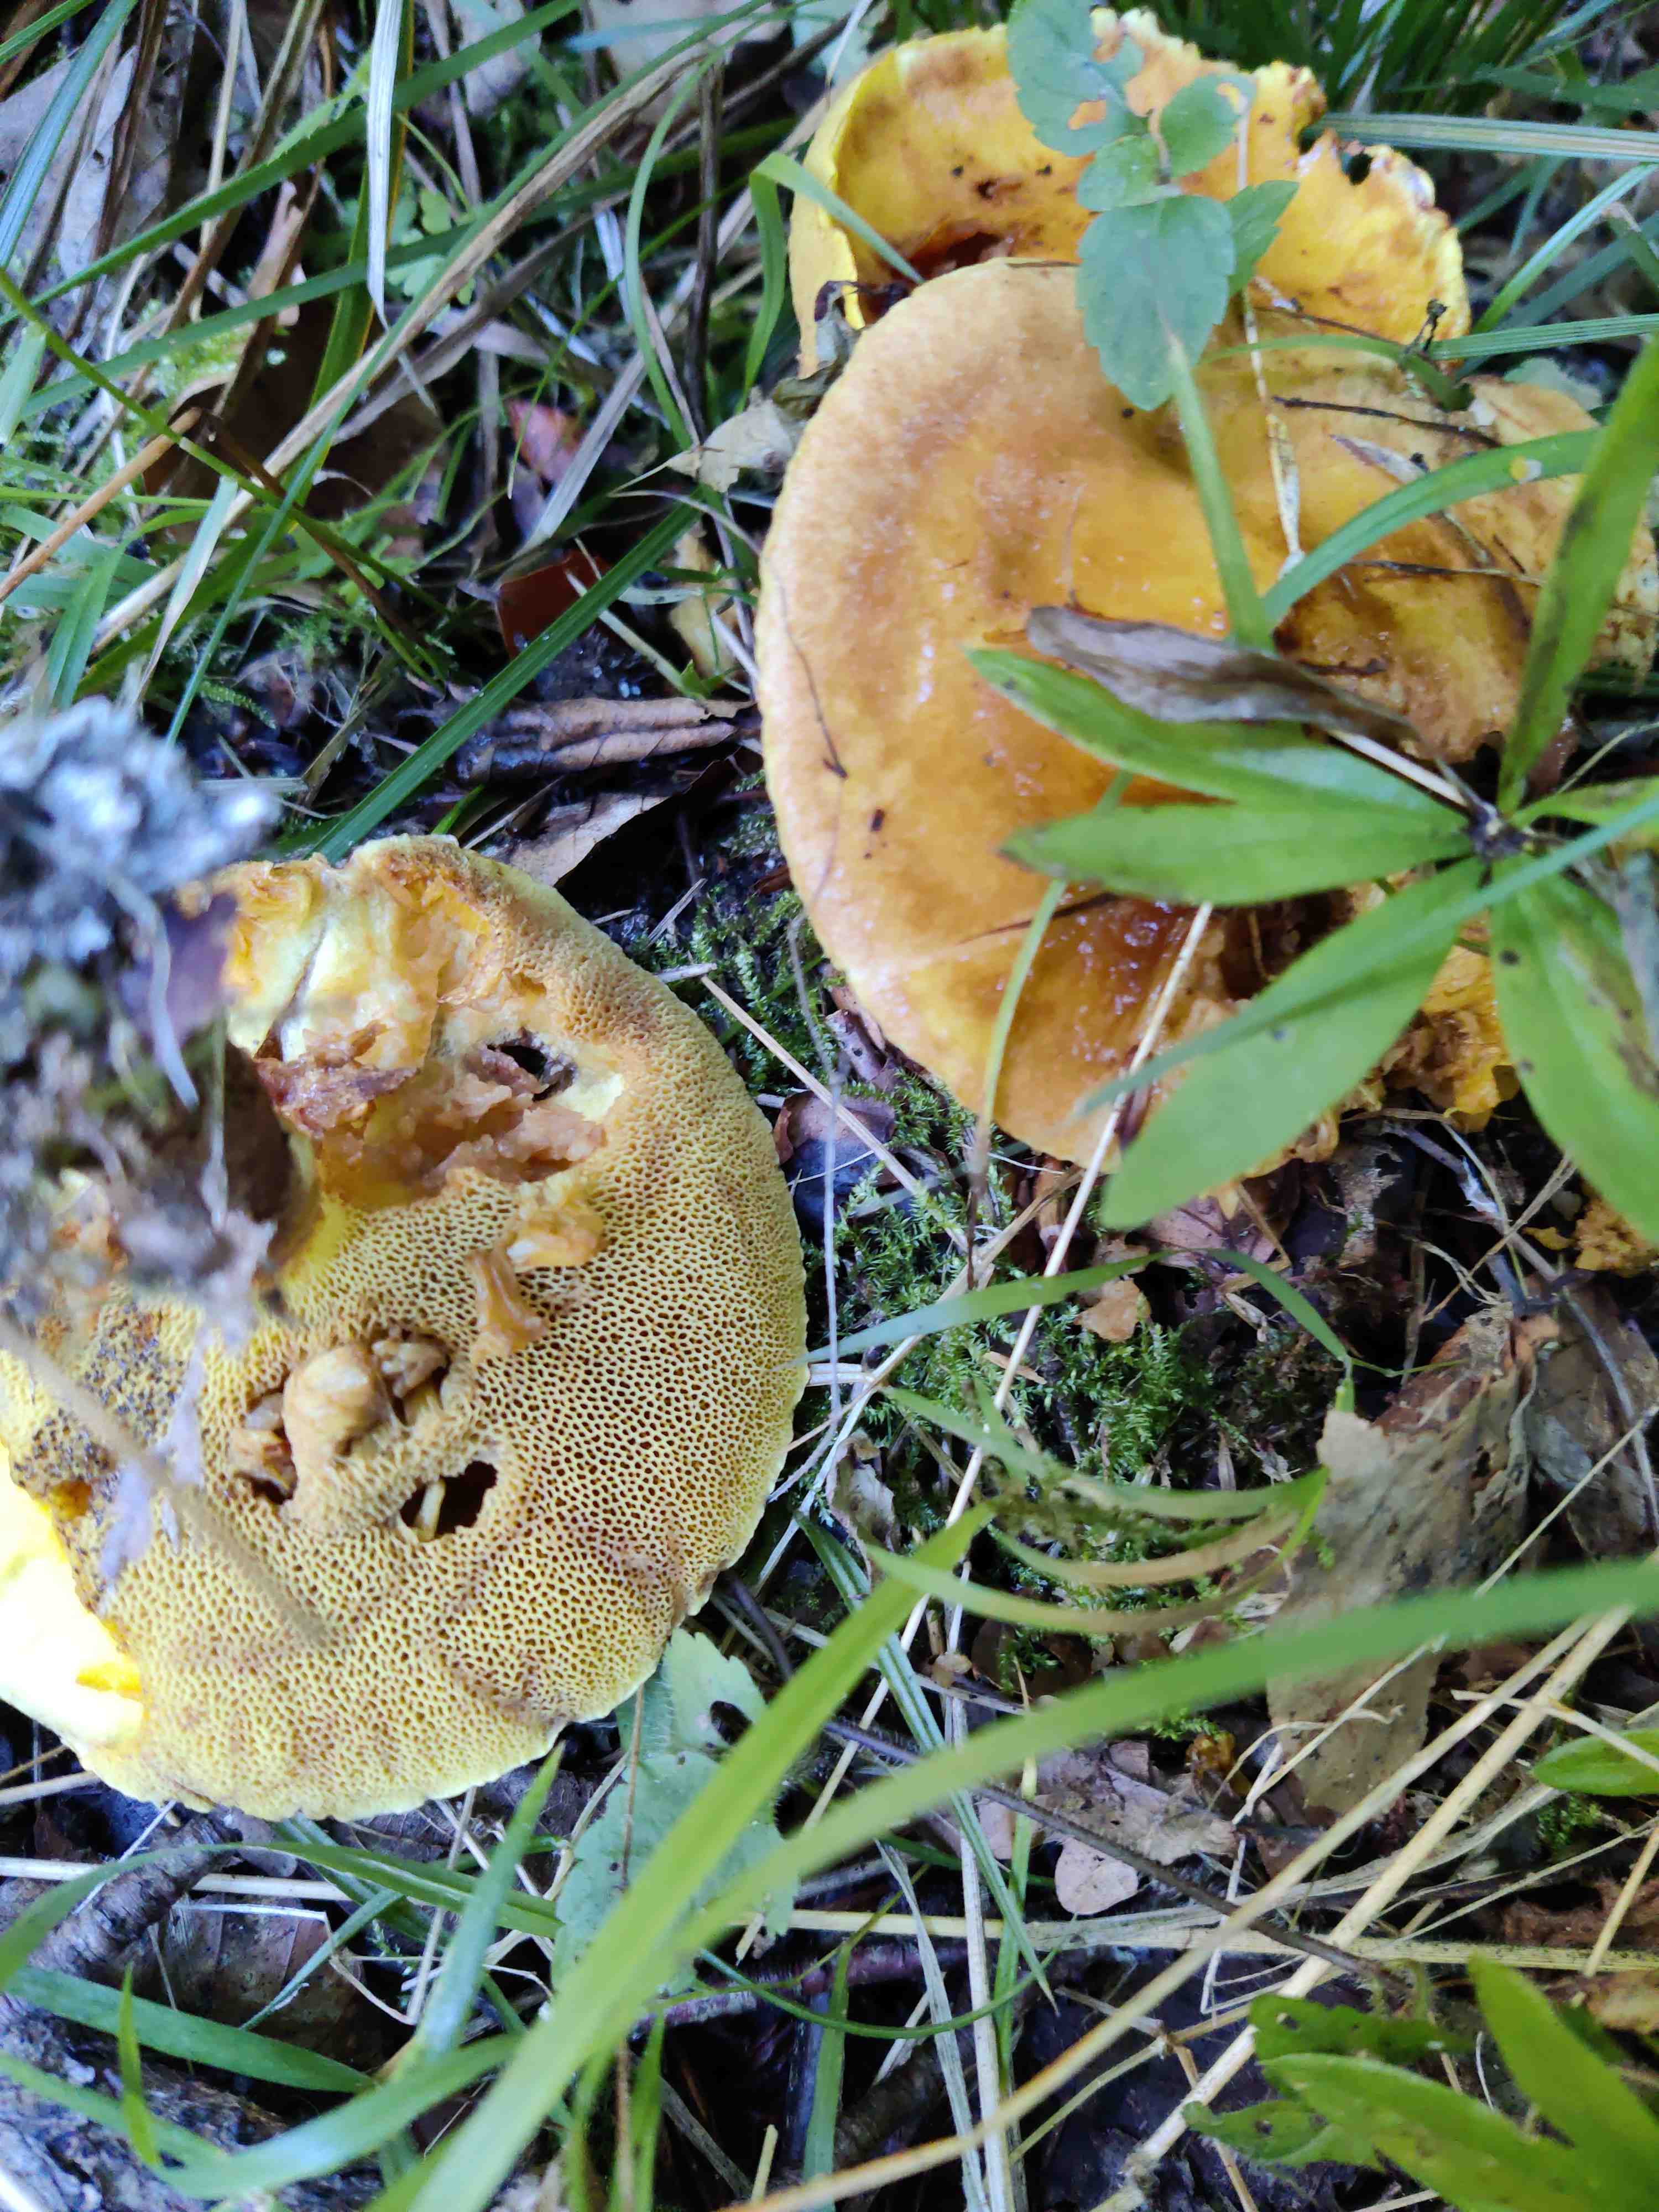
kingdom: Fungi
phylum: Basidiomycota
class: Agaricomycetes
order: Boletales
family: Suillaceae
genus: Suillus
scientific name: Suillus
